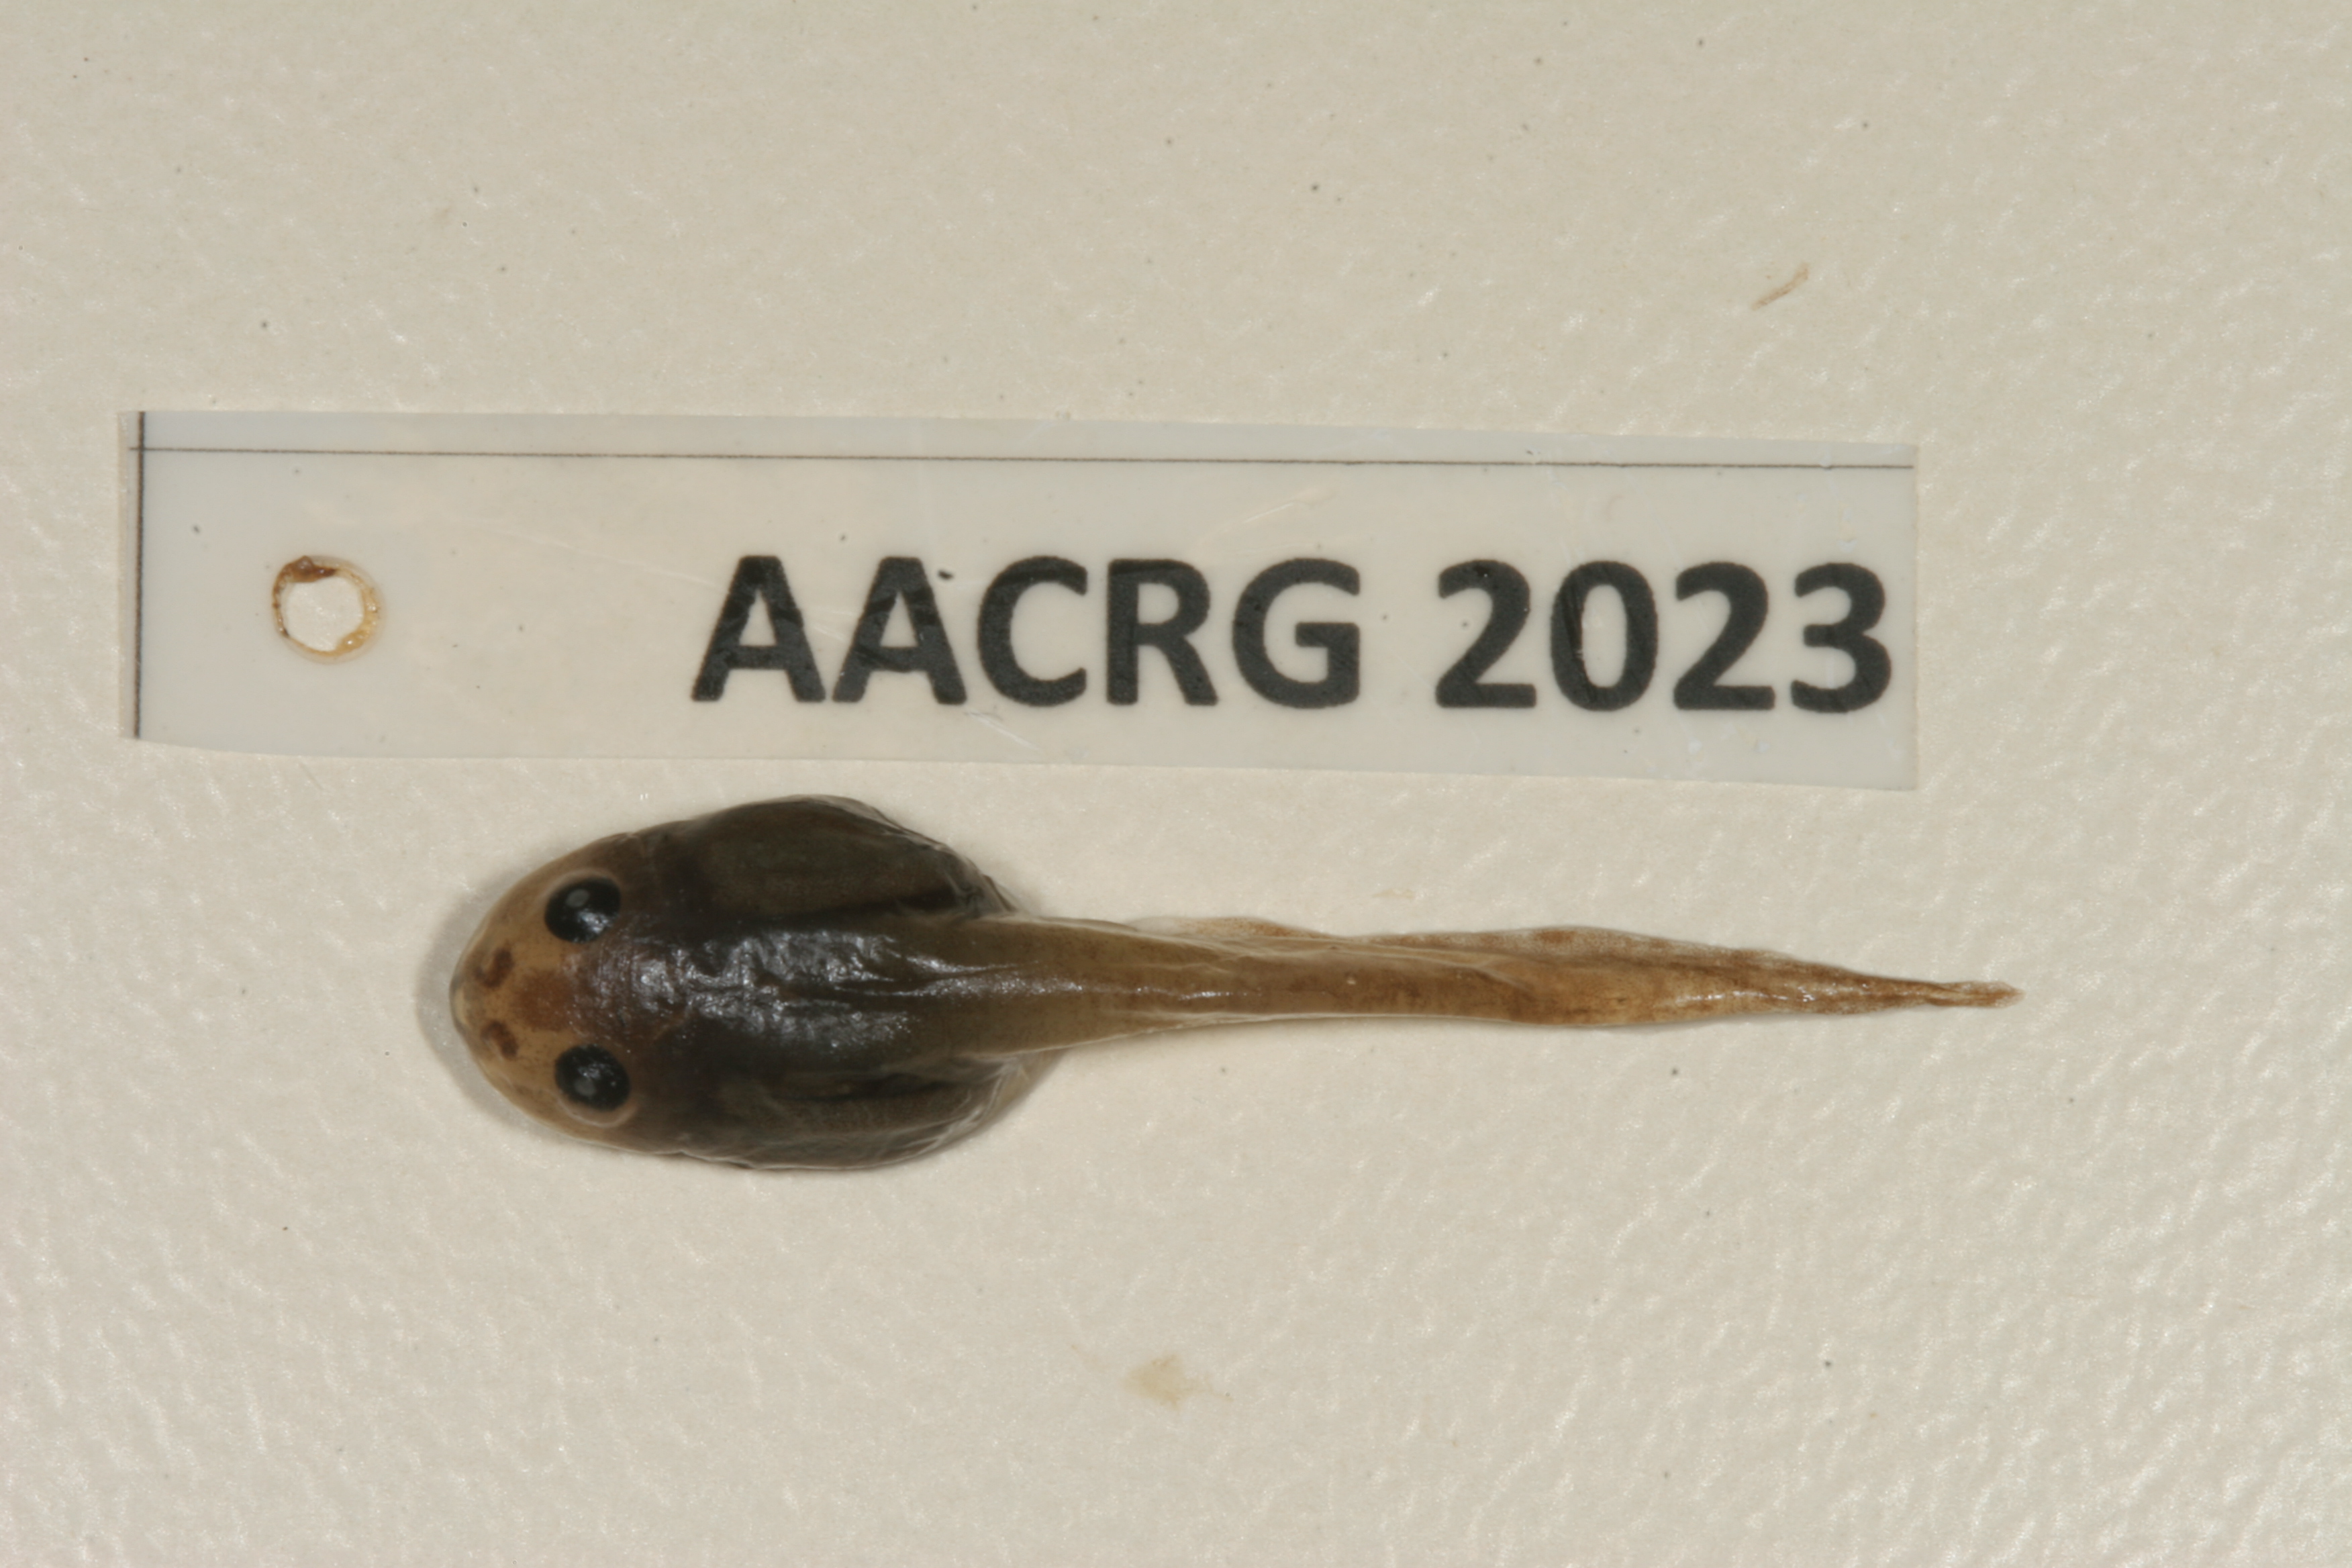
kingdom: Animalia
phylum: Chordata
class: Amphibia
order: Anura
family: Ptychadenidae
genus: Ptychadena
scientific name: Ptychadena anchietae
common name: Anchieta's ridged frog
